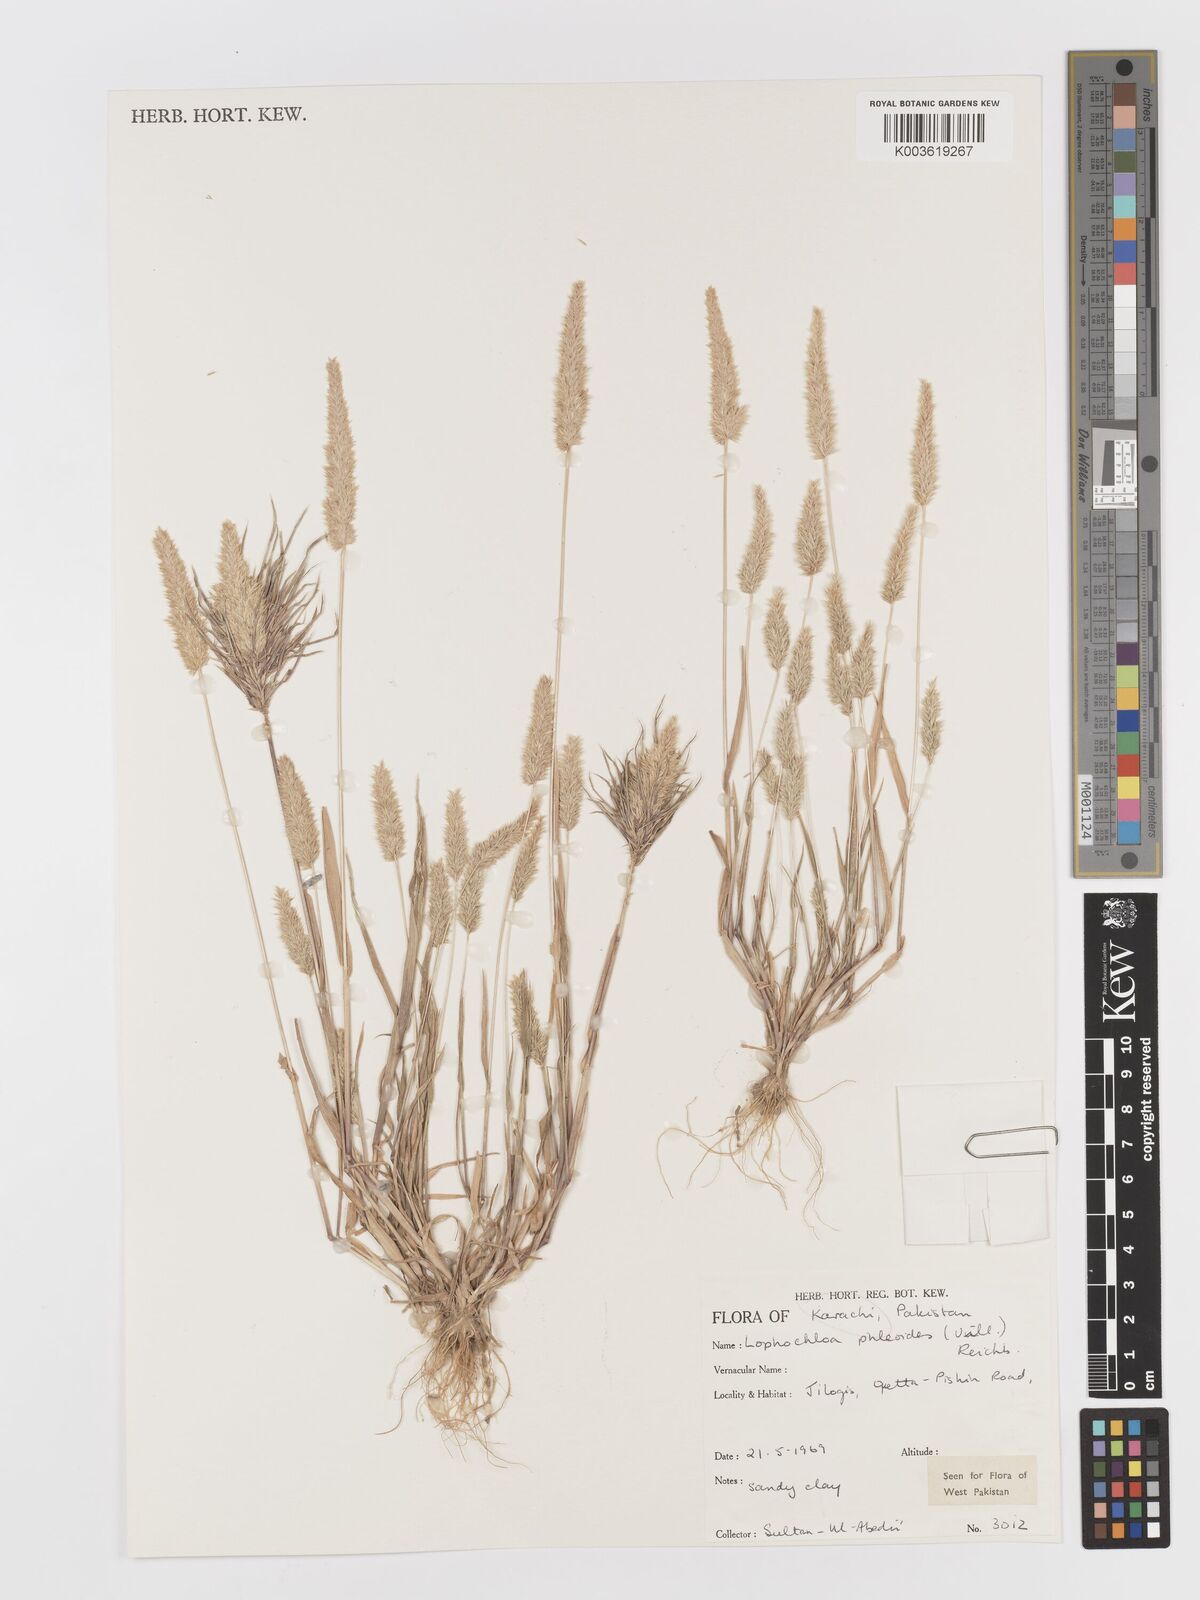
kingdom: Plantae
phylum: Tracheophyta
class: Liliopsida
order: Poales
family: Poaceae
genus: Rostraria
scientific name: Rostraria cristata
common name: Mediterranean hair-grass
